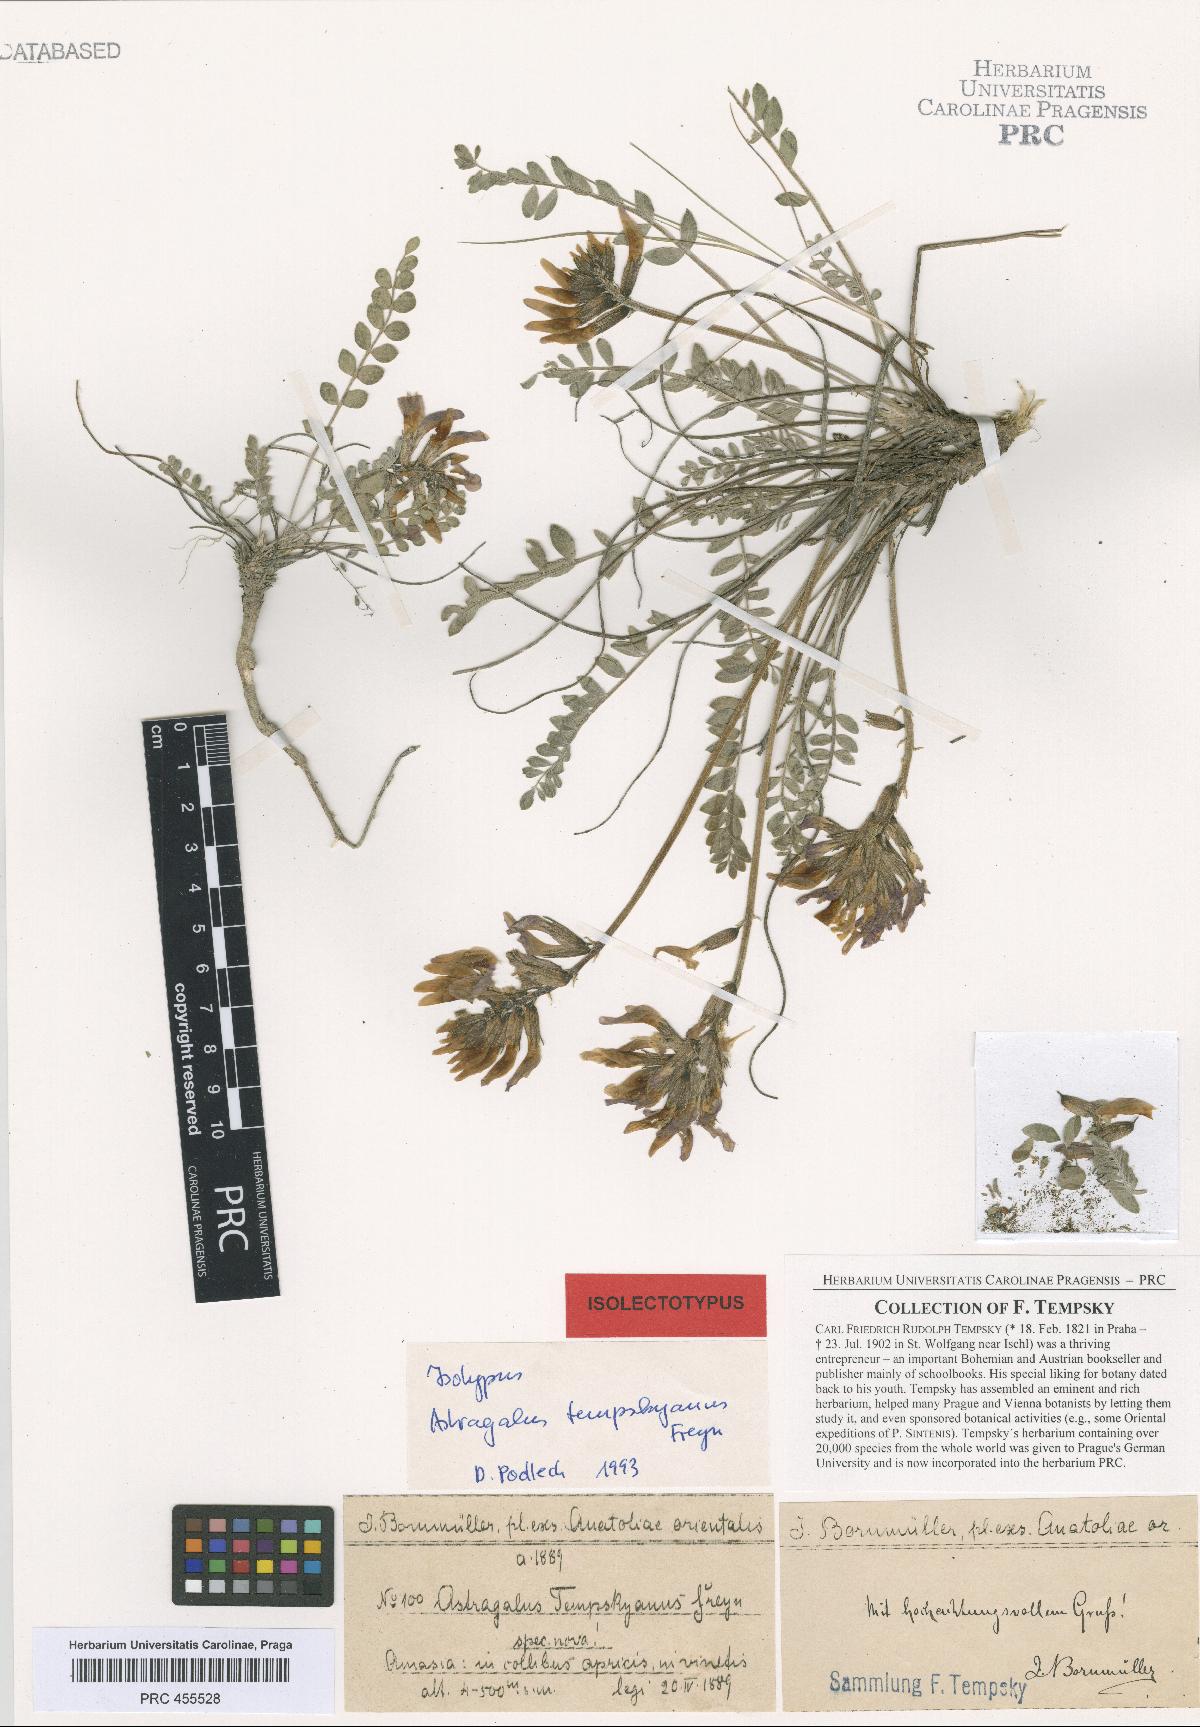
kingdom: Plantae
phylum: Tracheophyta
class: Magnoliopsida
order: Fabales
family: Fabaceae
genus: Astragalus
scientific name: Astragalus spruneri
